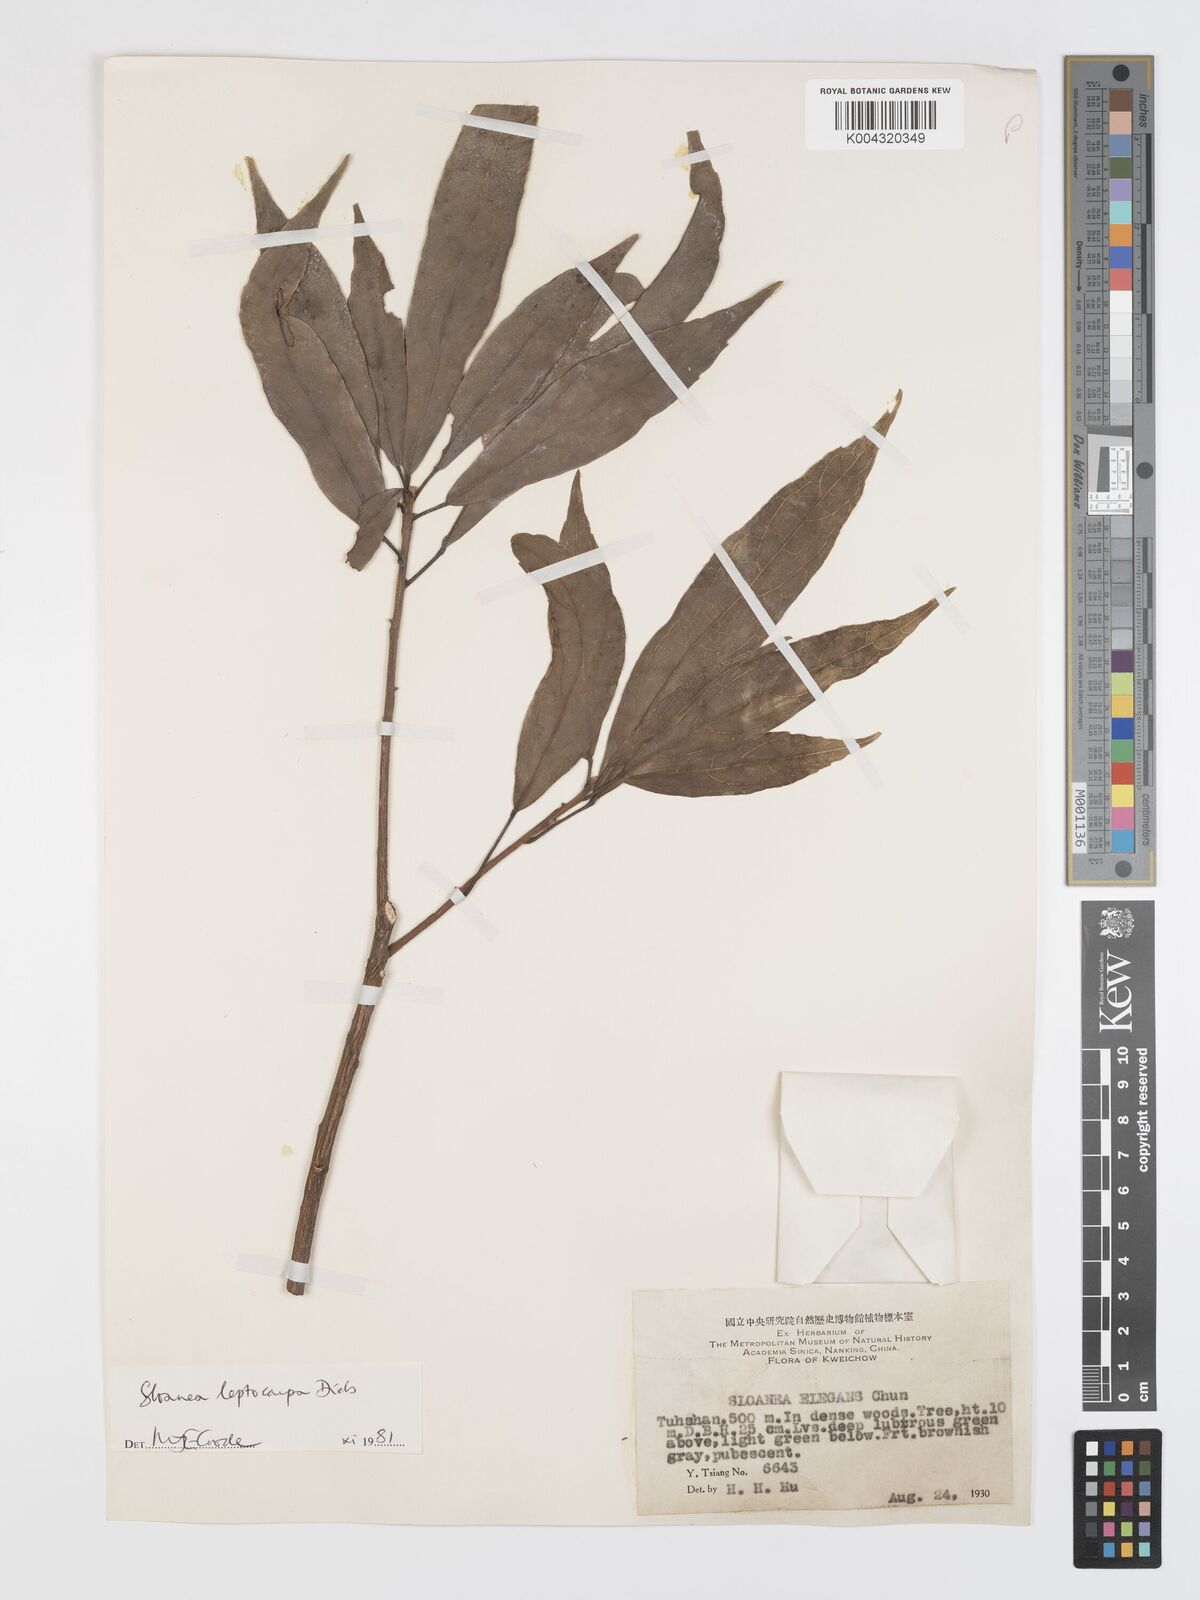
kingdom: Plantae
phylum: Tracheophyta
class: Magnoliopsida
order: Oxalidales
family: Elaeocarpaceae
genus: Sloanea
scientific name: Sloanea leptocarpa
